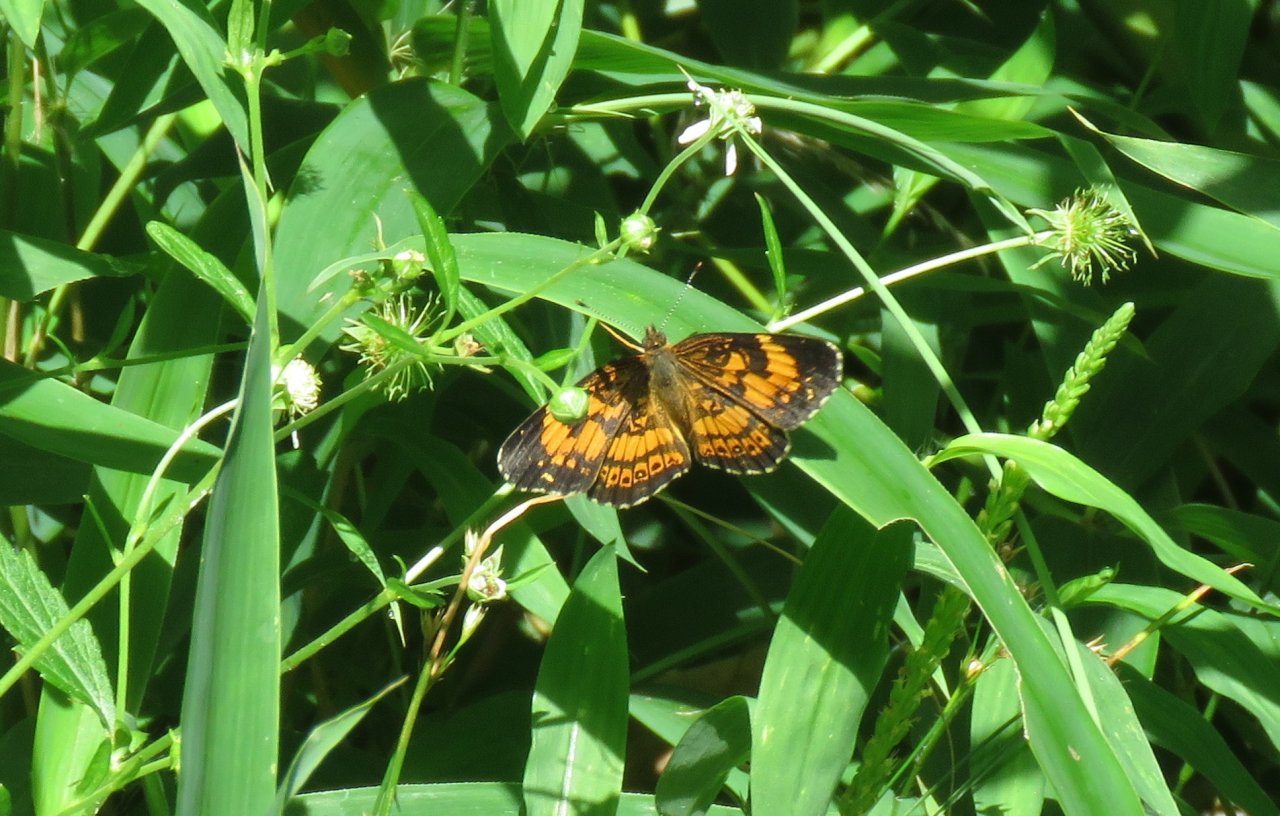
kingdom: Animalia
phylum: Arthropoda
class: Insecta
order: Lepidoptera
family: Nymphalidae
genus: Chlosyne
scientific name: Chlosyne nycteis
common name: Silvery Checkerspot
